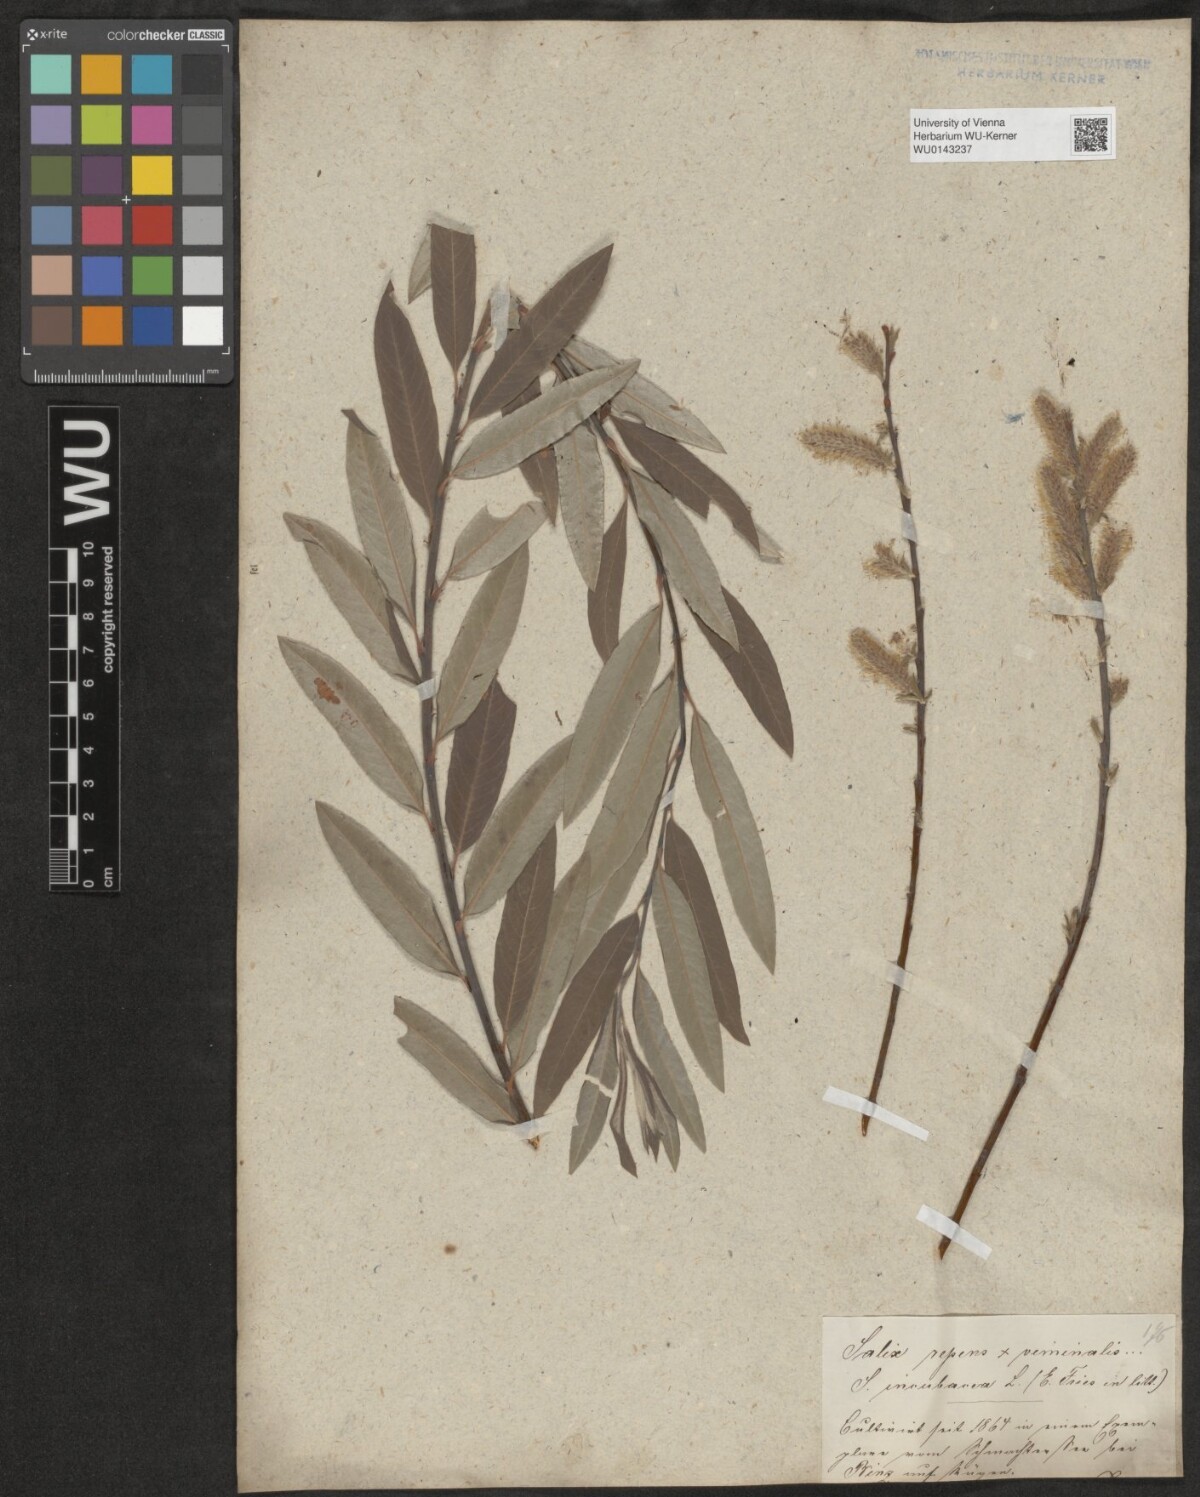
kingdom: Plantae
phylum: Tracheophyta
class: Magnoliopsida
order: Malpighiales
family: Salicaceae
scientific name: Salicaceae
